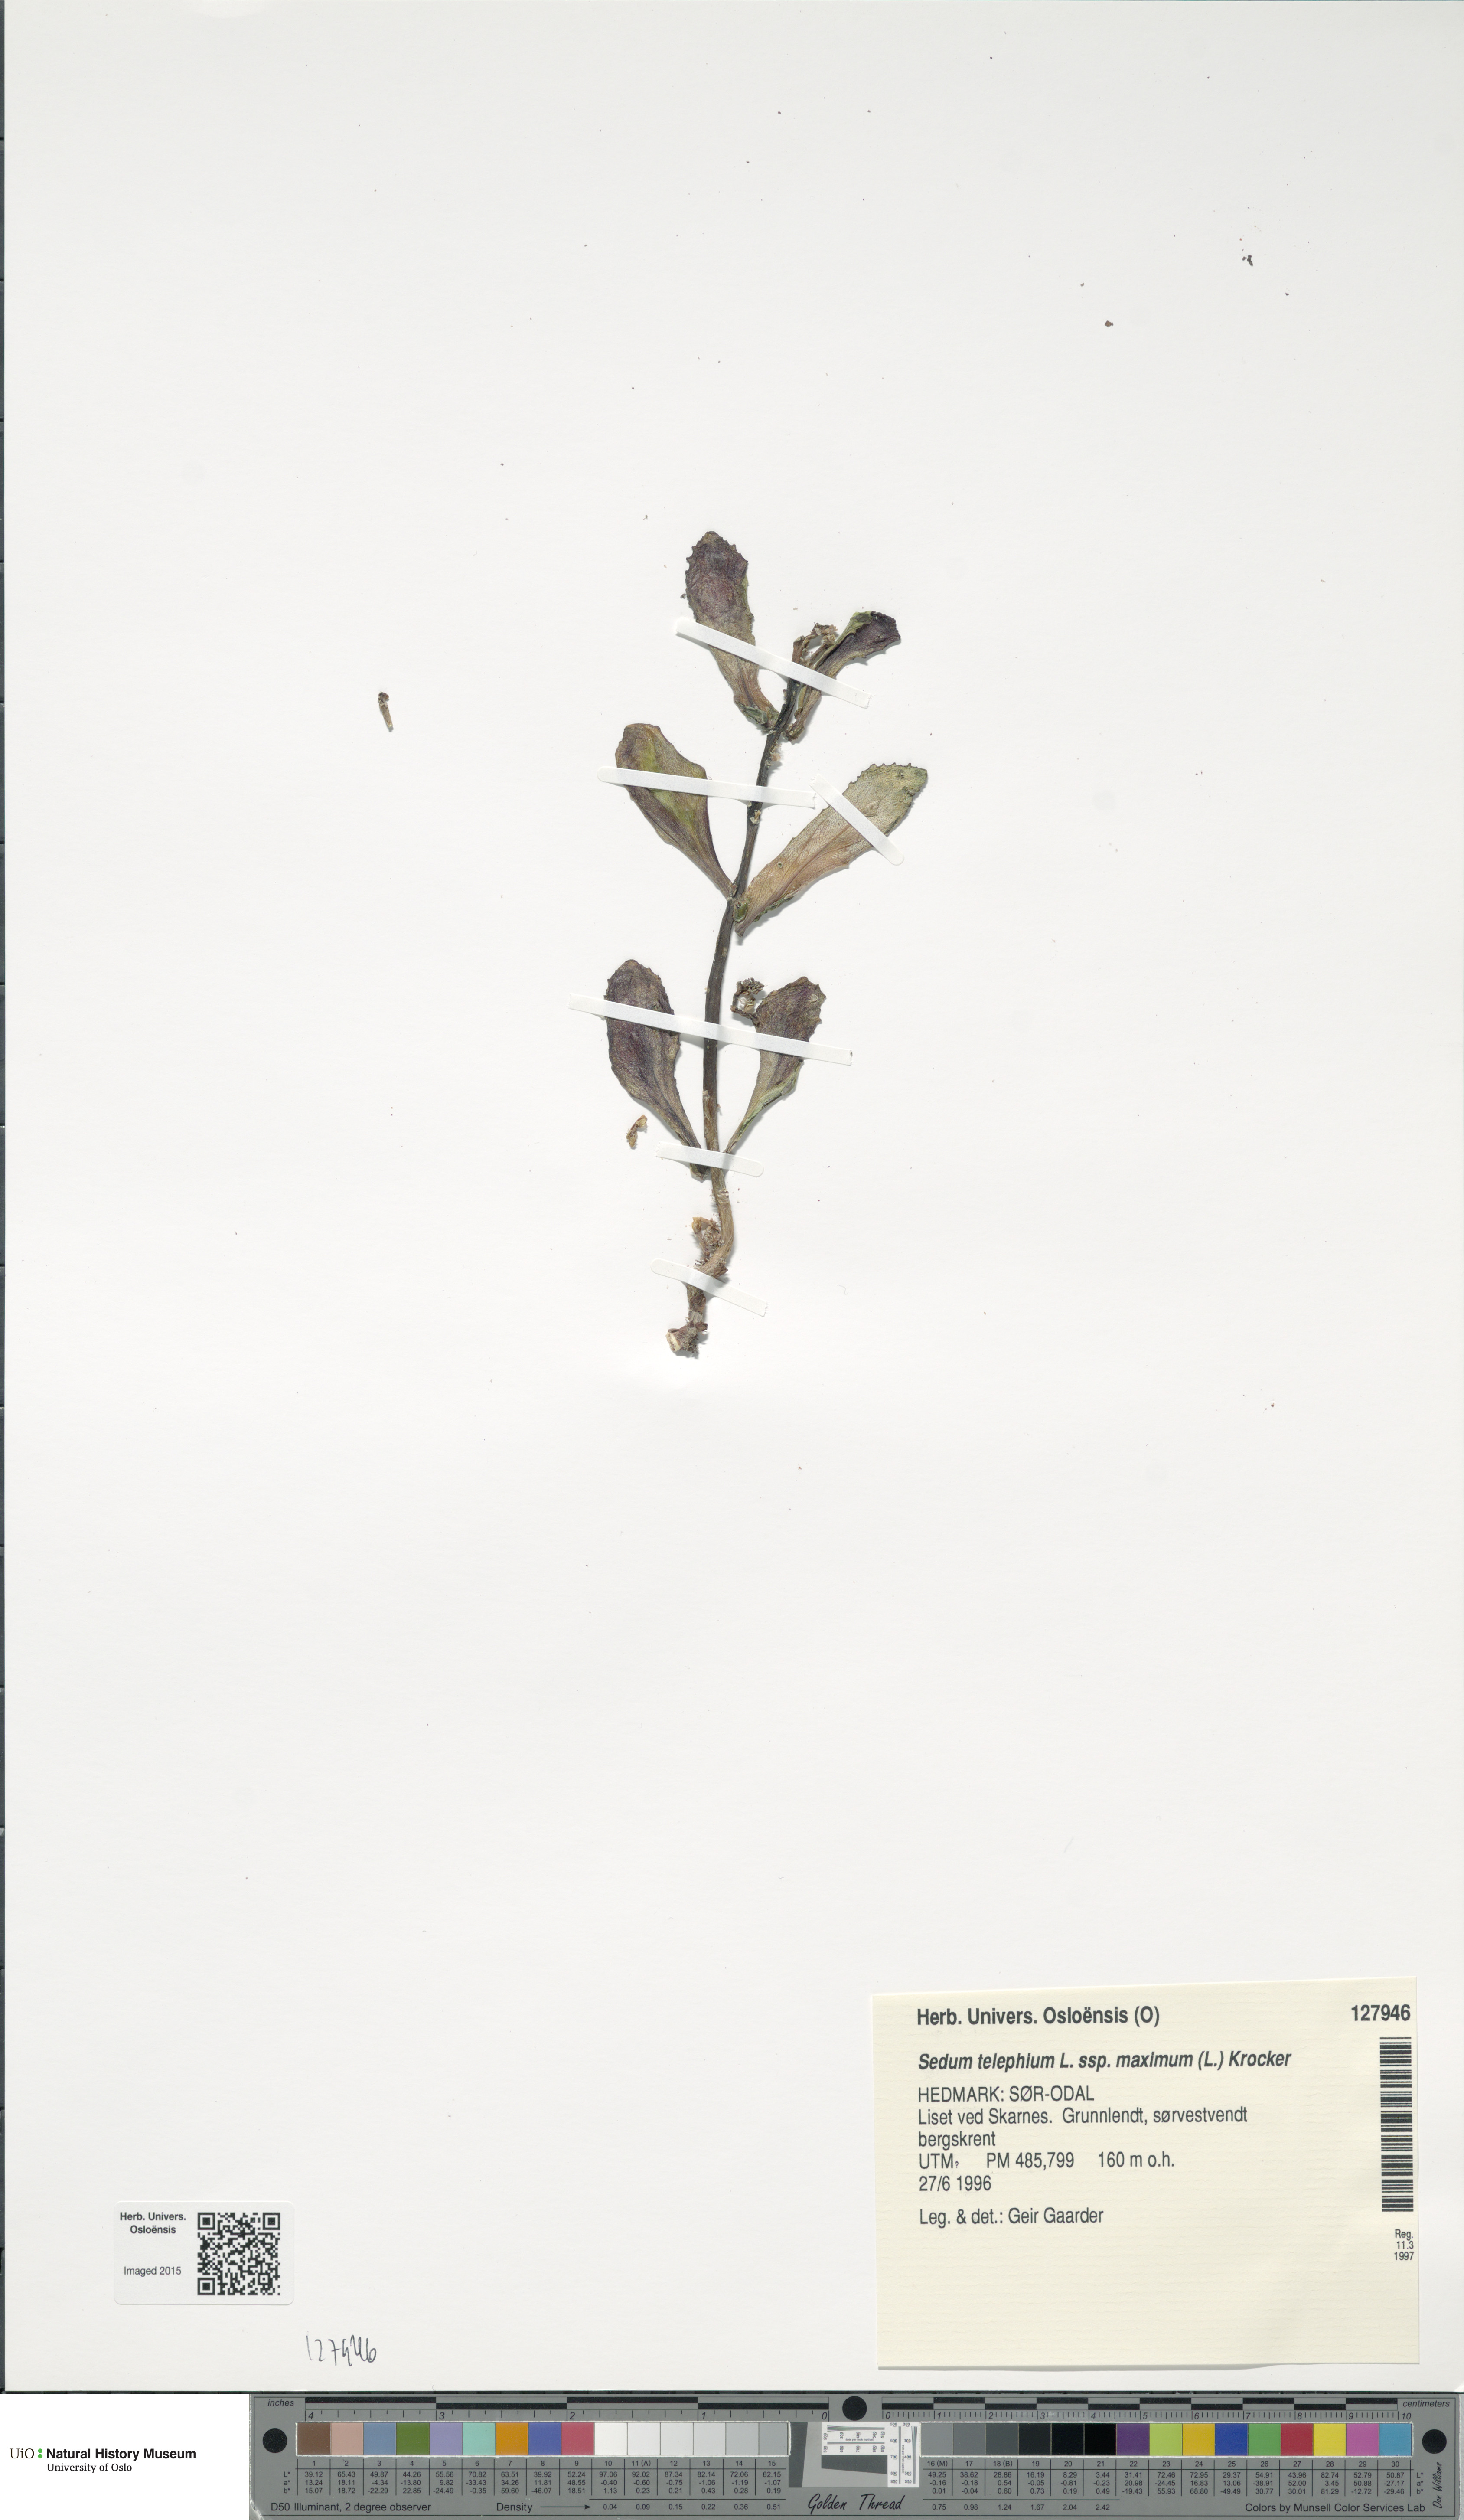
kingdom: Plantae
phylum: Tracheophyta
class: Magnoliopsida
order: Saxifragales
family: Crassulaceae
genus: Hylotelephium
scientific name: Hylotelephium maximum
